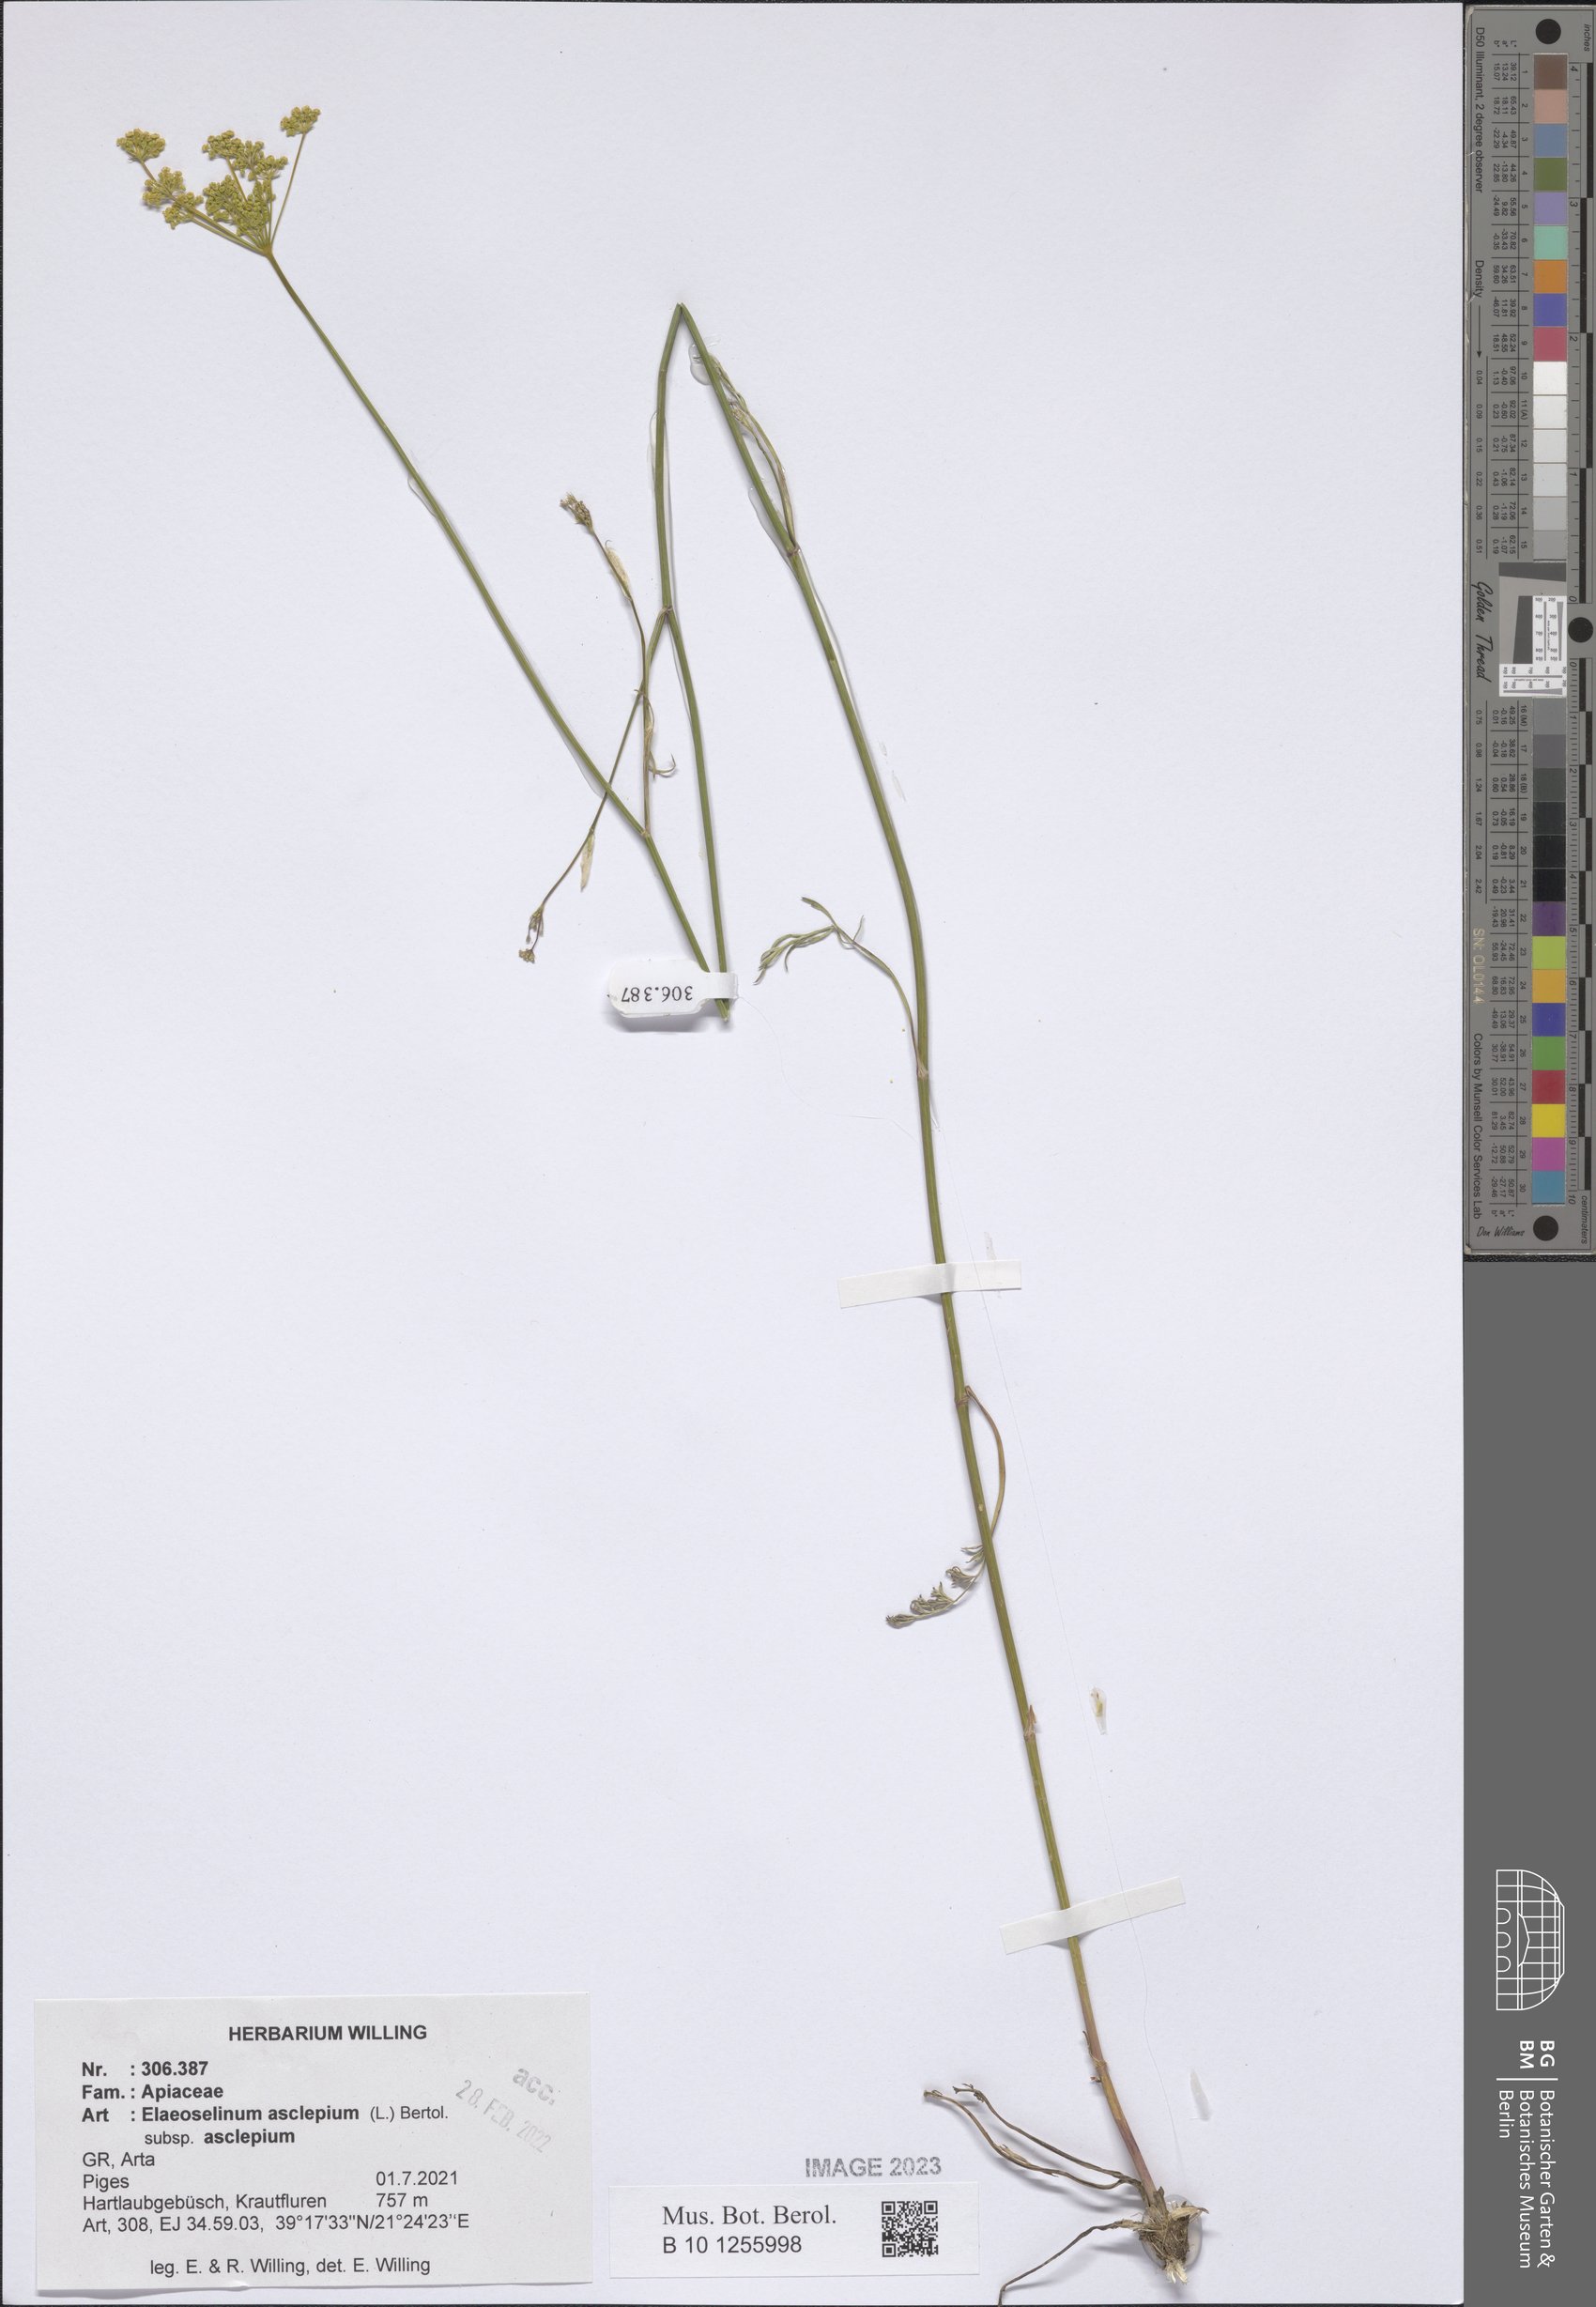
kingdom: Plantae
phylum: Tracheophyta
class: Magnoliopsida
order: Apiales
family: Apiaceae
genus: Thapsia
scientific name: Thapsia asclepium
